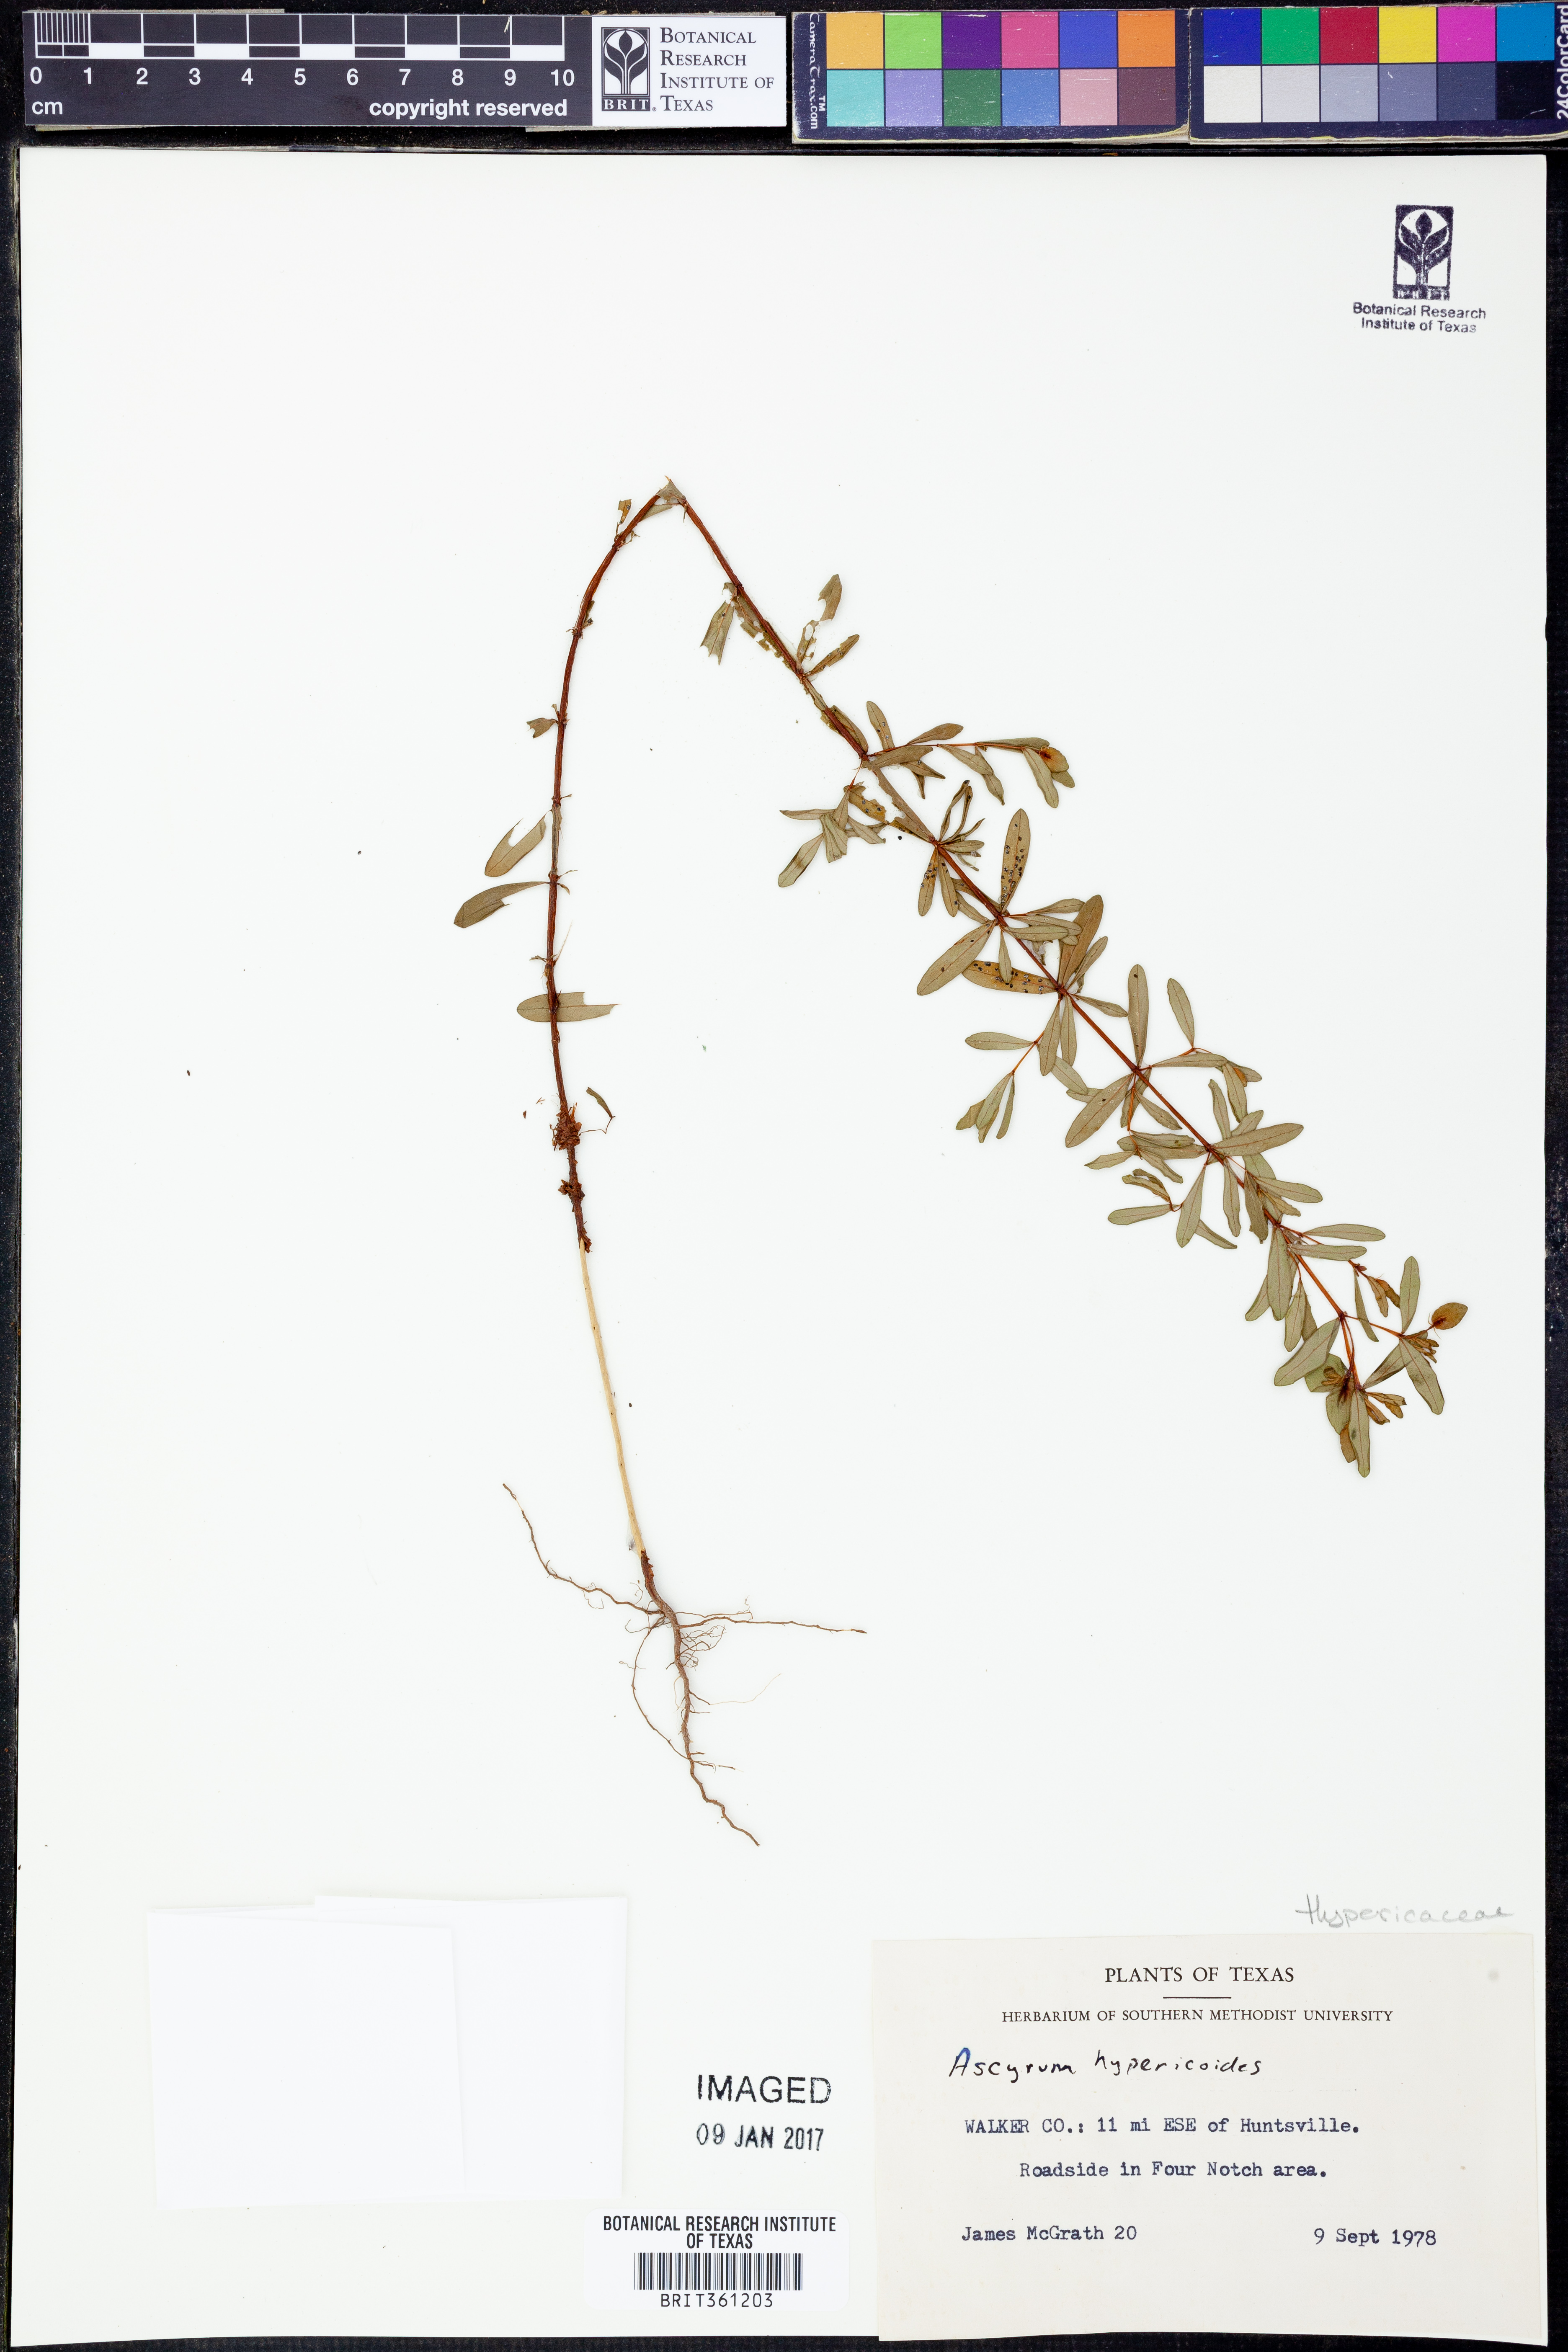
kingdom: Plantae
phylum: Tracheophyta
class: Magnoliopsida
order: Malpighiales
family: Hypericaceae
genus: Hypericum
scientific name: Hypericum hypericoides
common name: St. andrew's cross
